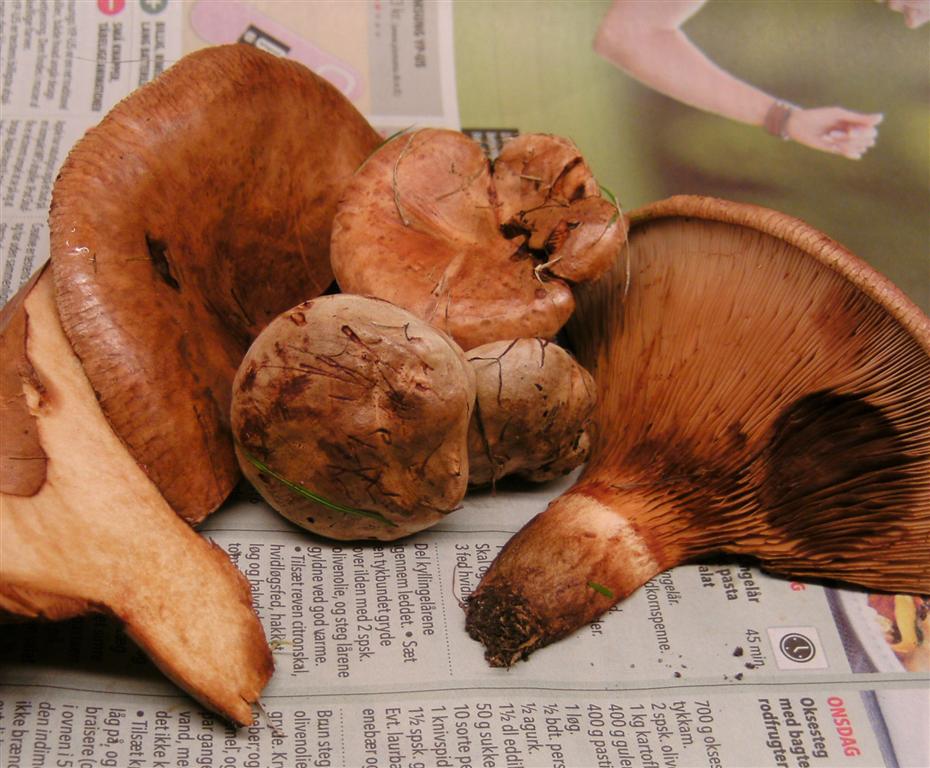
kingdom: Fungi
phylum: Basidiomycota
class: Agaricomycetes
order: Boletales
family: Paxillaceae
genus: Paxillus
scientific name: Paxillus obscurisporus
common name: mahognisporet netbladhat
